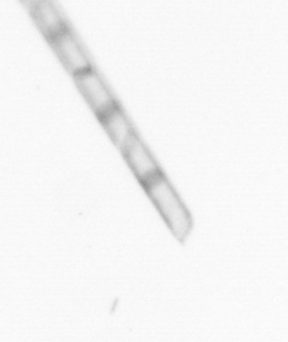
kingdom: Chromista
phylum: Ochrophyta
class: Bacillariophyceae
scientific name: Bacillariophyceae
